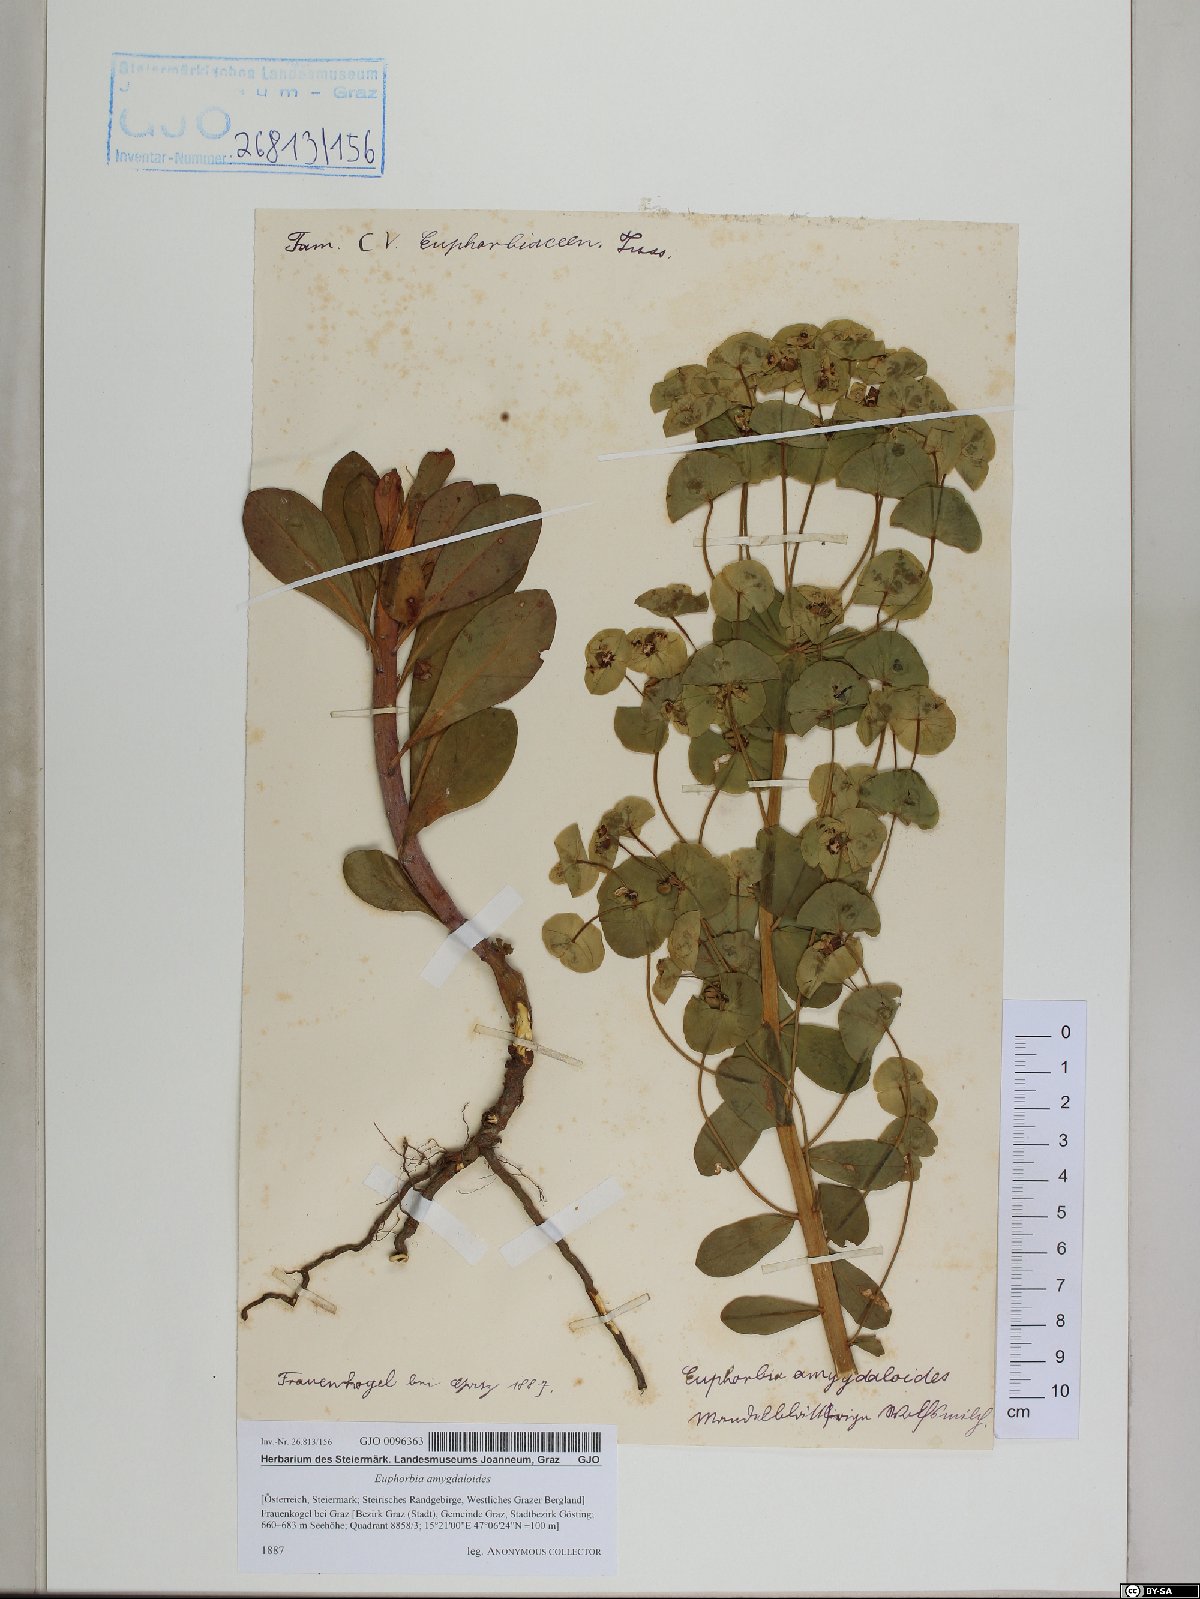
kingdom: Plantae
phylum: Tracheophyta
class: Magnoliopsida
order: Malpighiales
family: Euphorbiaceae
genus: Euphorbia
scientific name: Euphorbia amygdaloides
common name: Wood spurge
